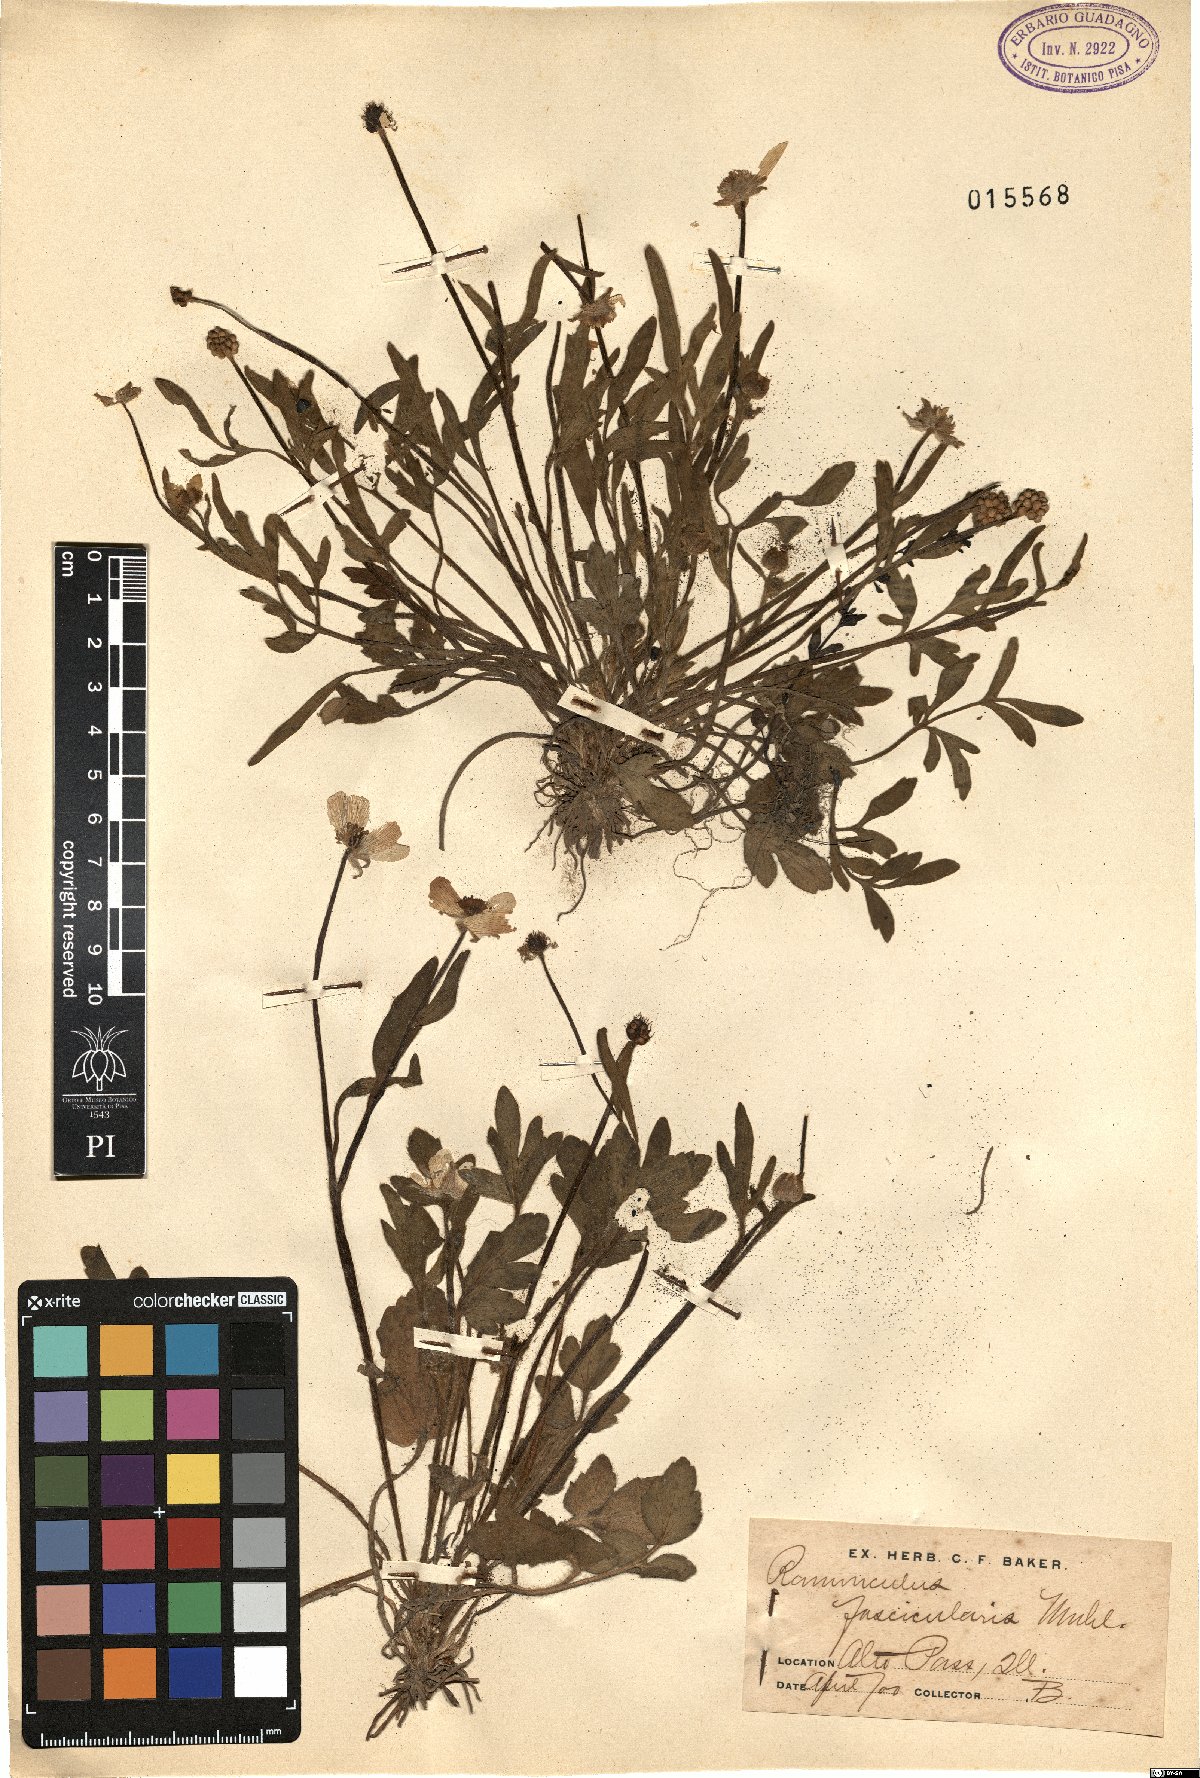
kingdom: Plantae
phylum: Tracheophyta
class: Magnoliopsida
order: Ranunculales
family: Ranunculaceae
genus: Ranunculus
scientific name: Ranunculus fascicularis
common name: Early buttercup
